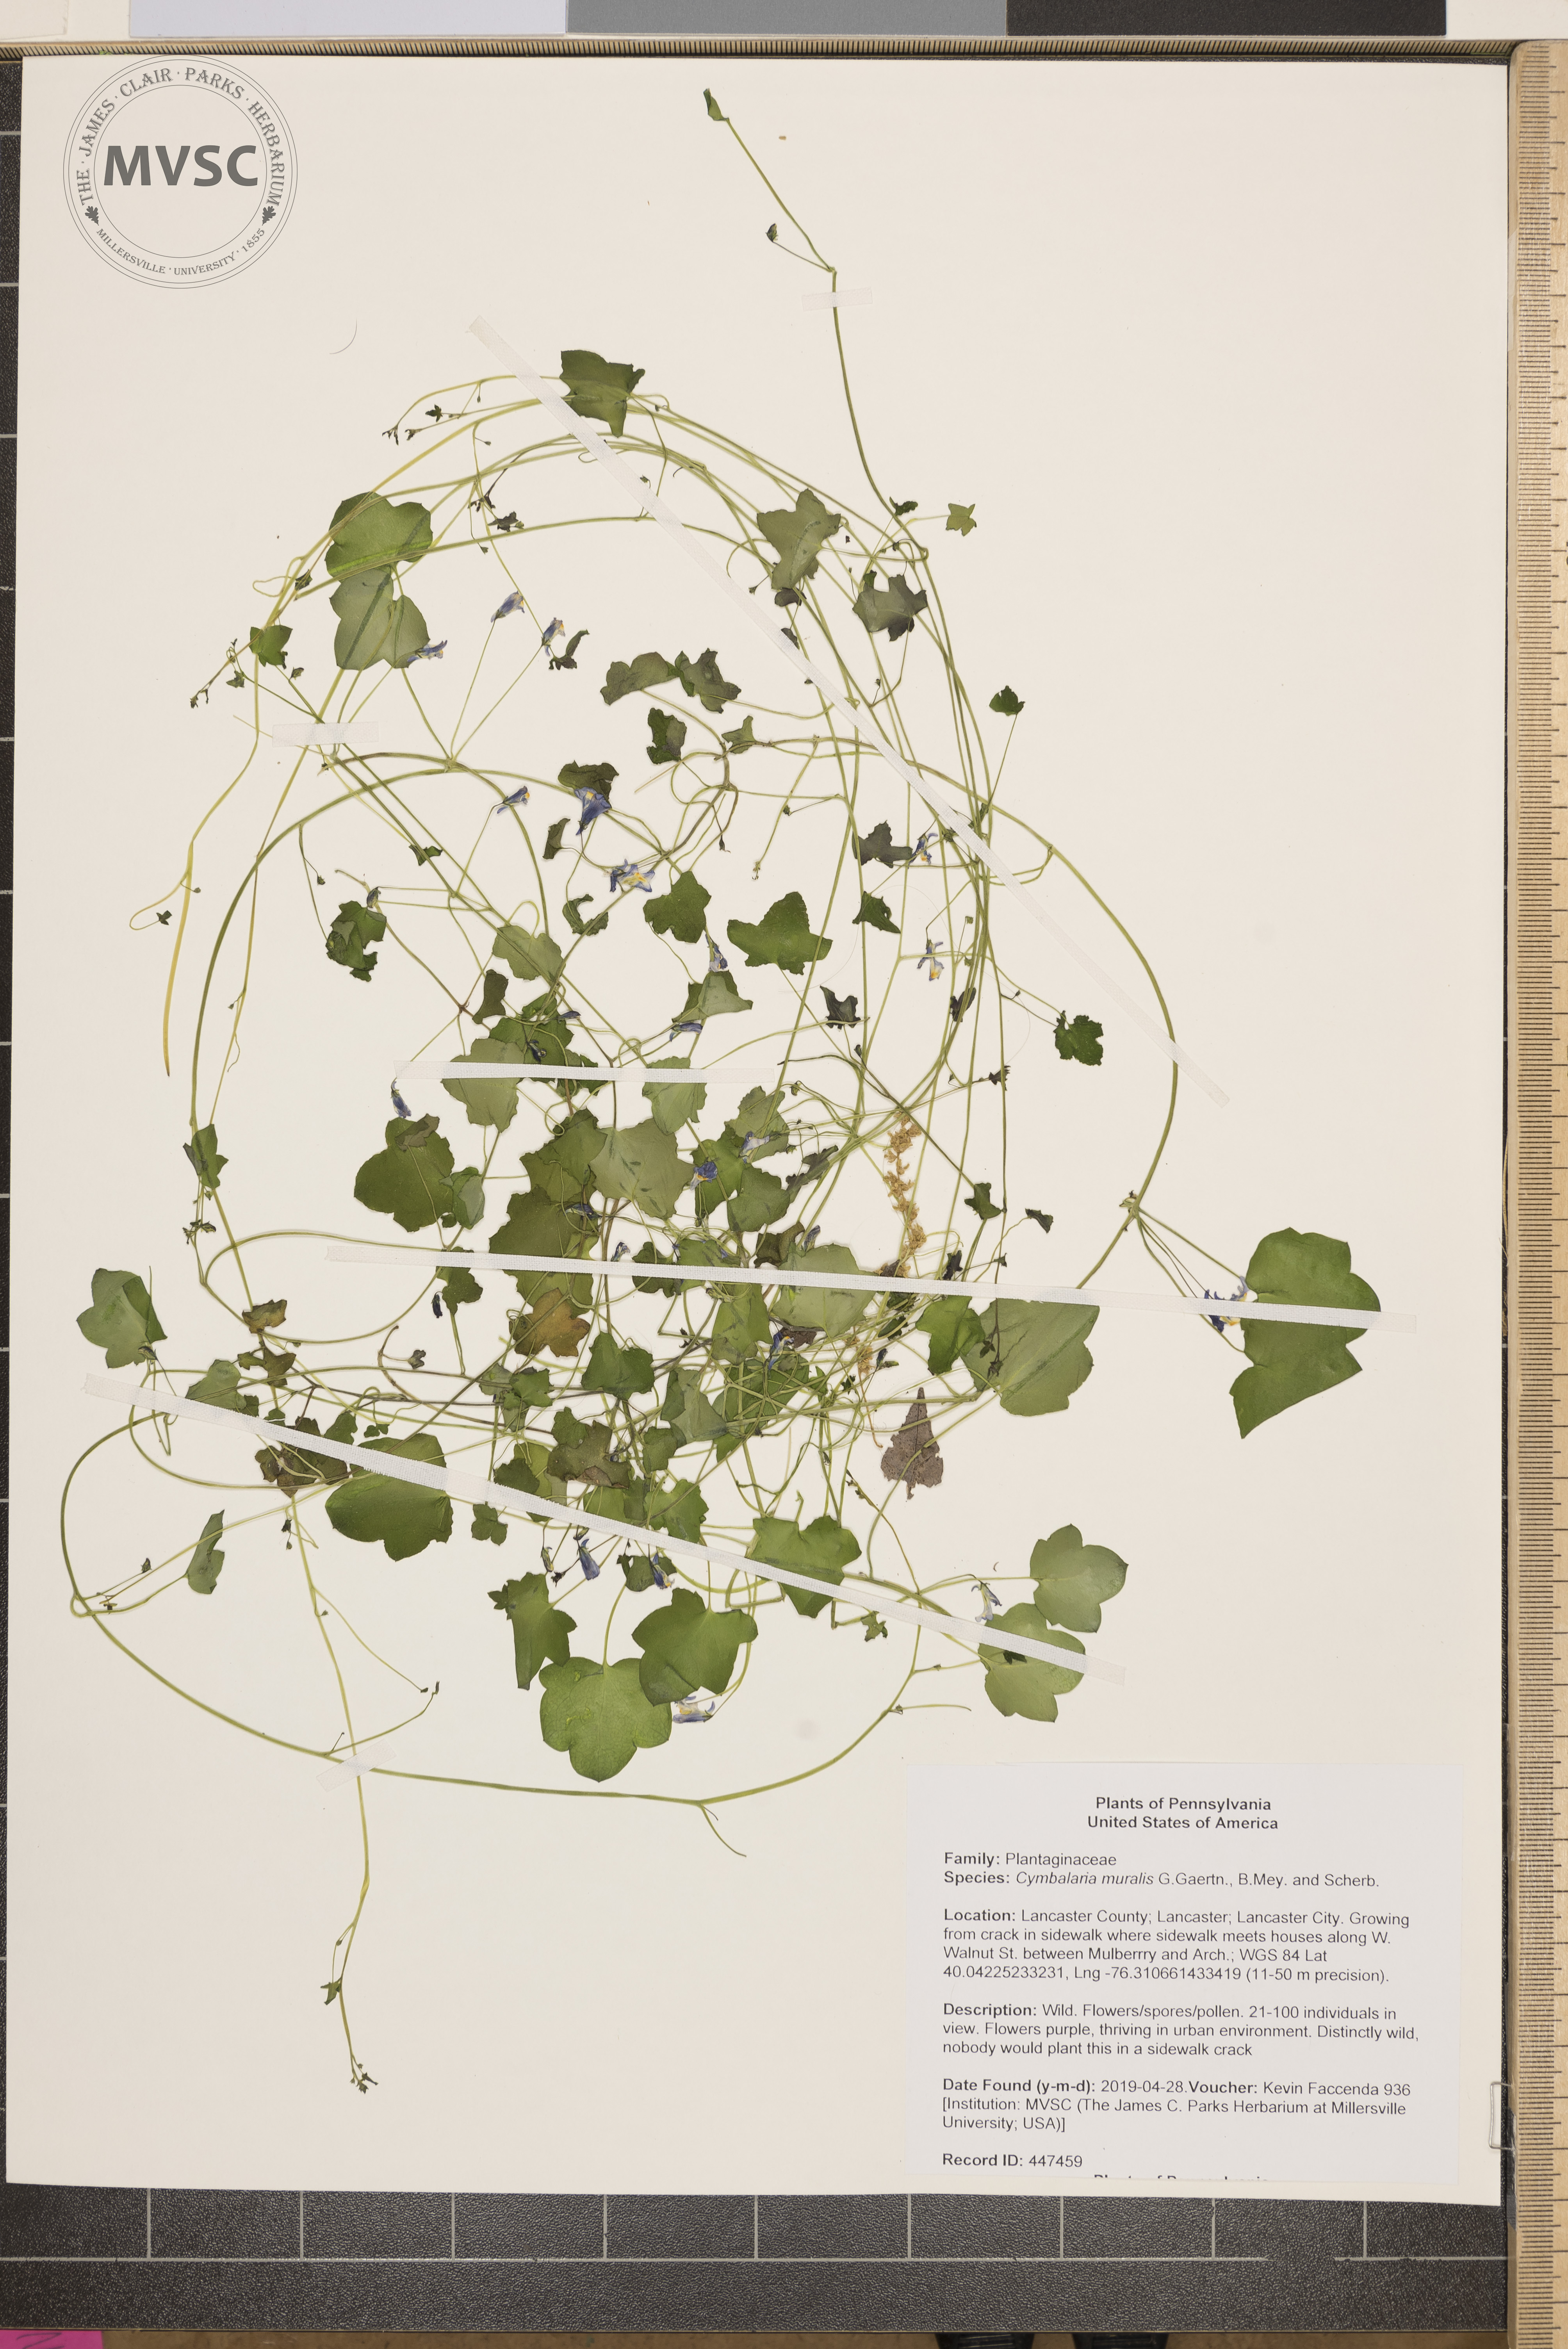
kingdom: Plantae
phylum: Tracheophyta
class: Magnoliopsida
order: Lamiales
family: Plantaginaceae
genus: Cymbalaria
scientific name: Cymbalaria muralis
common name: Ivy-leaved toadflax
